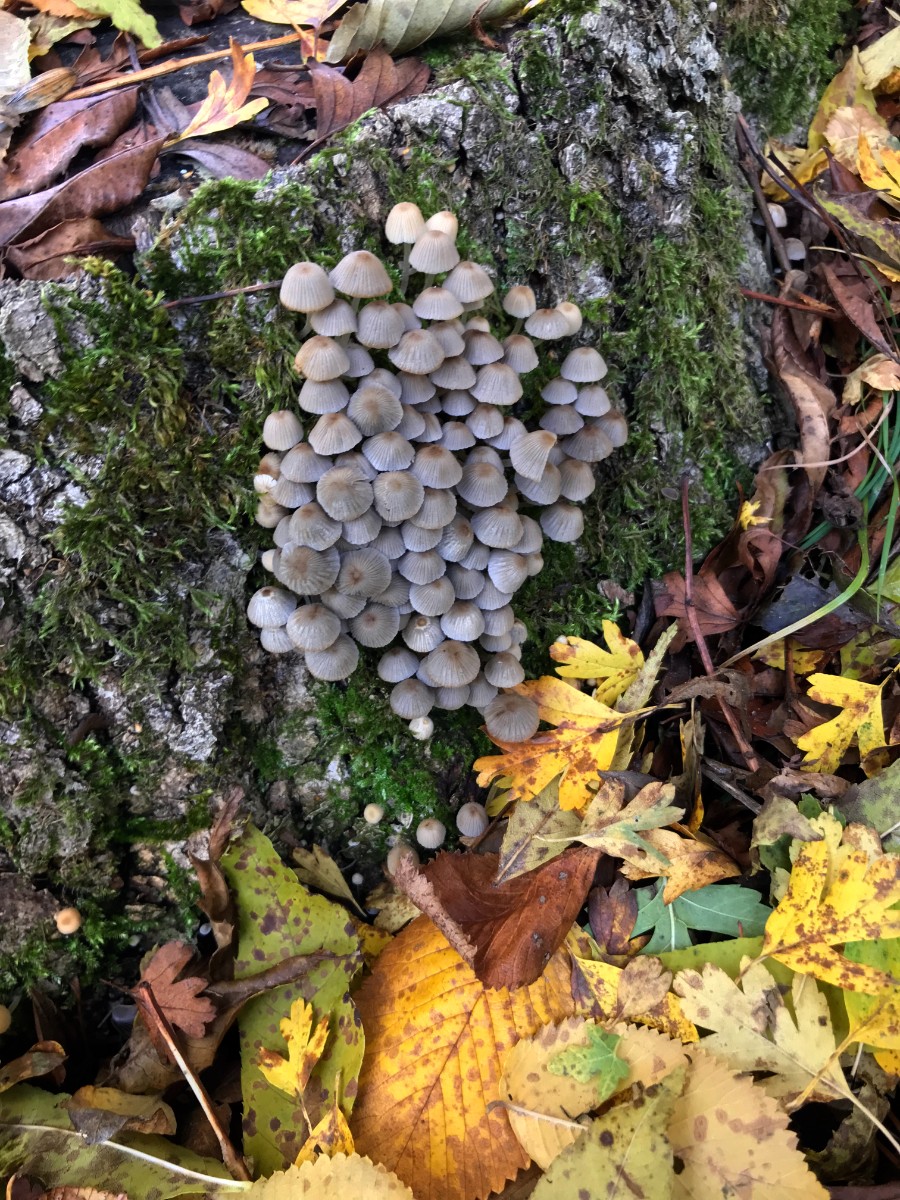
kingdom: Fungi
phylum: Basidiomycota
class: Agaricomycetes
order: Agaricales
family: Psathyrellaceae
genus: Coprinellus
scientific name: Coprinellus disseminatus
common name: bredsået blækhat
